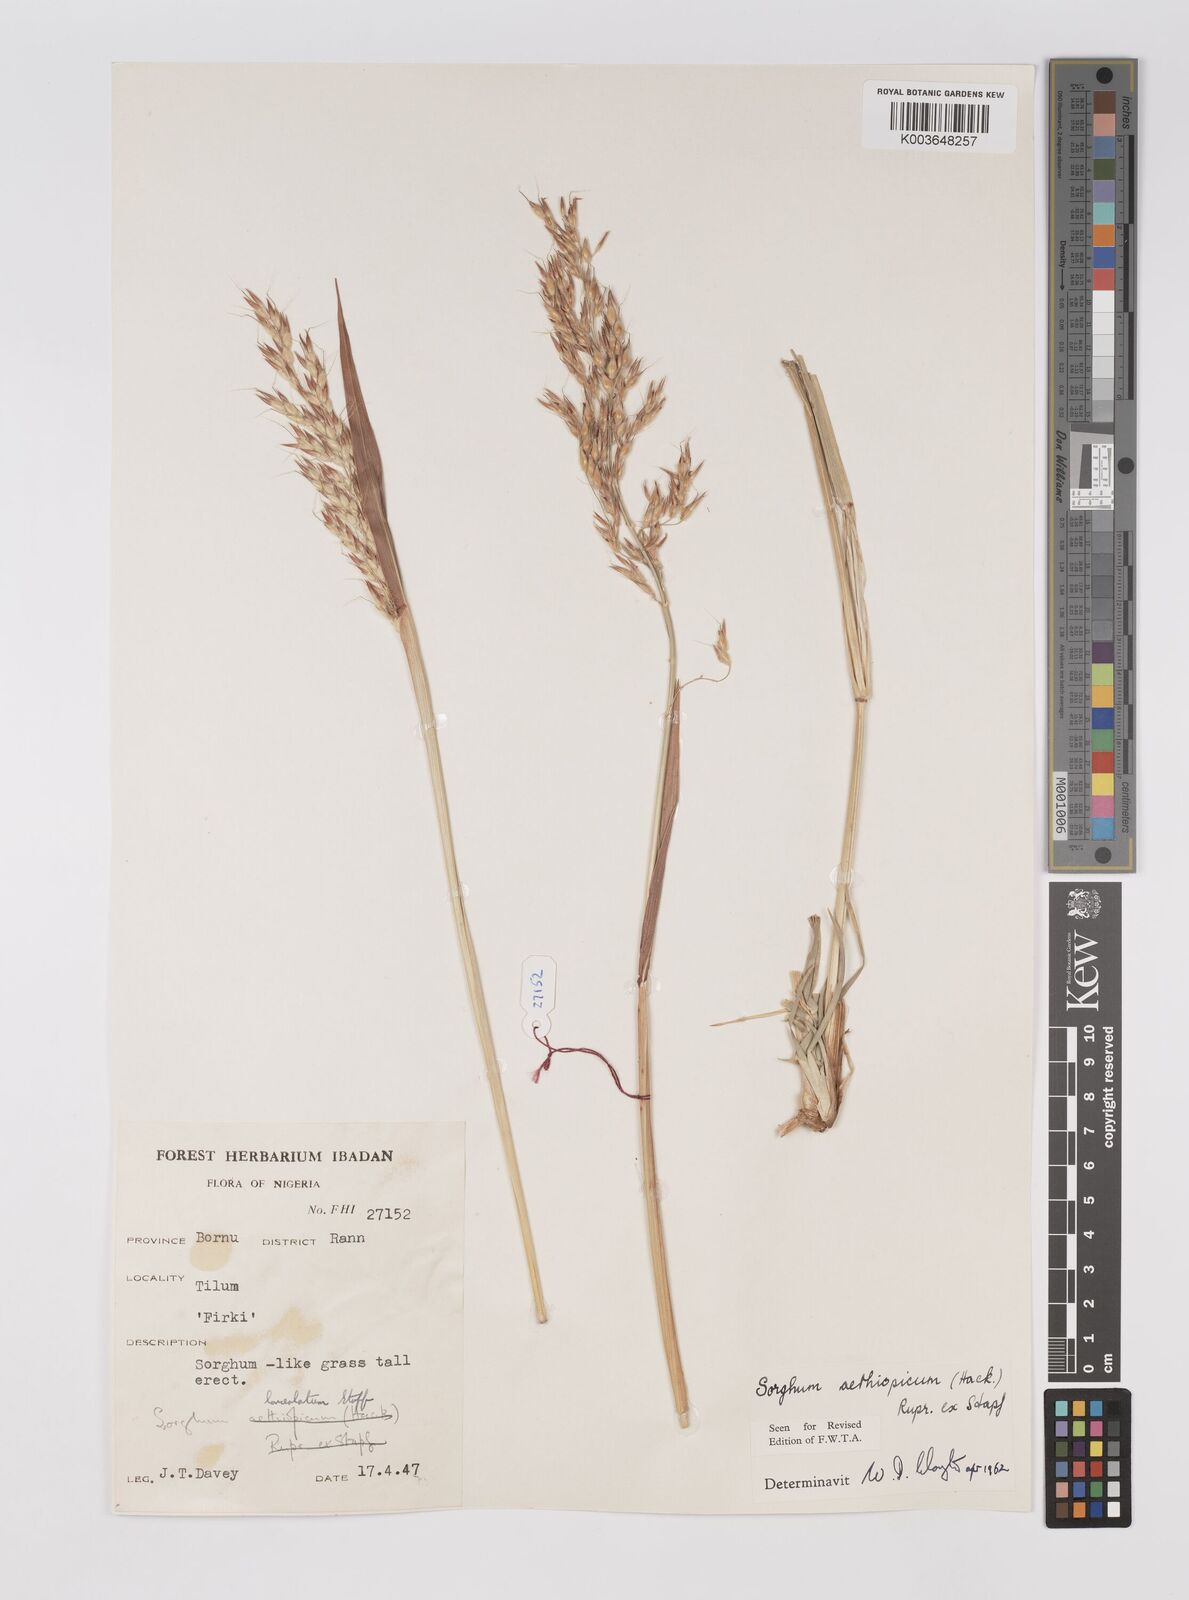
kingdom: Plantae
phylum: Tracheophyta
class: Liliopsida
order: Poales
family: Poaceae
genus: Sorghum
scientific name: Sorghum arundinaceum
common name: Sorghum
